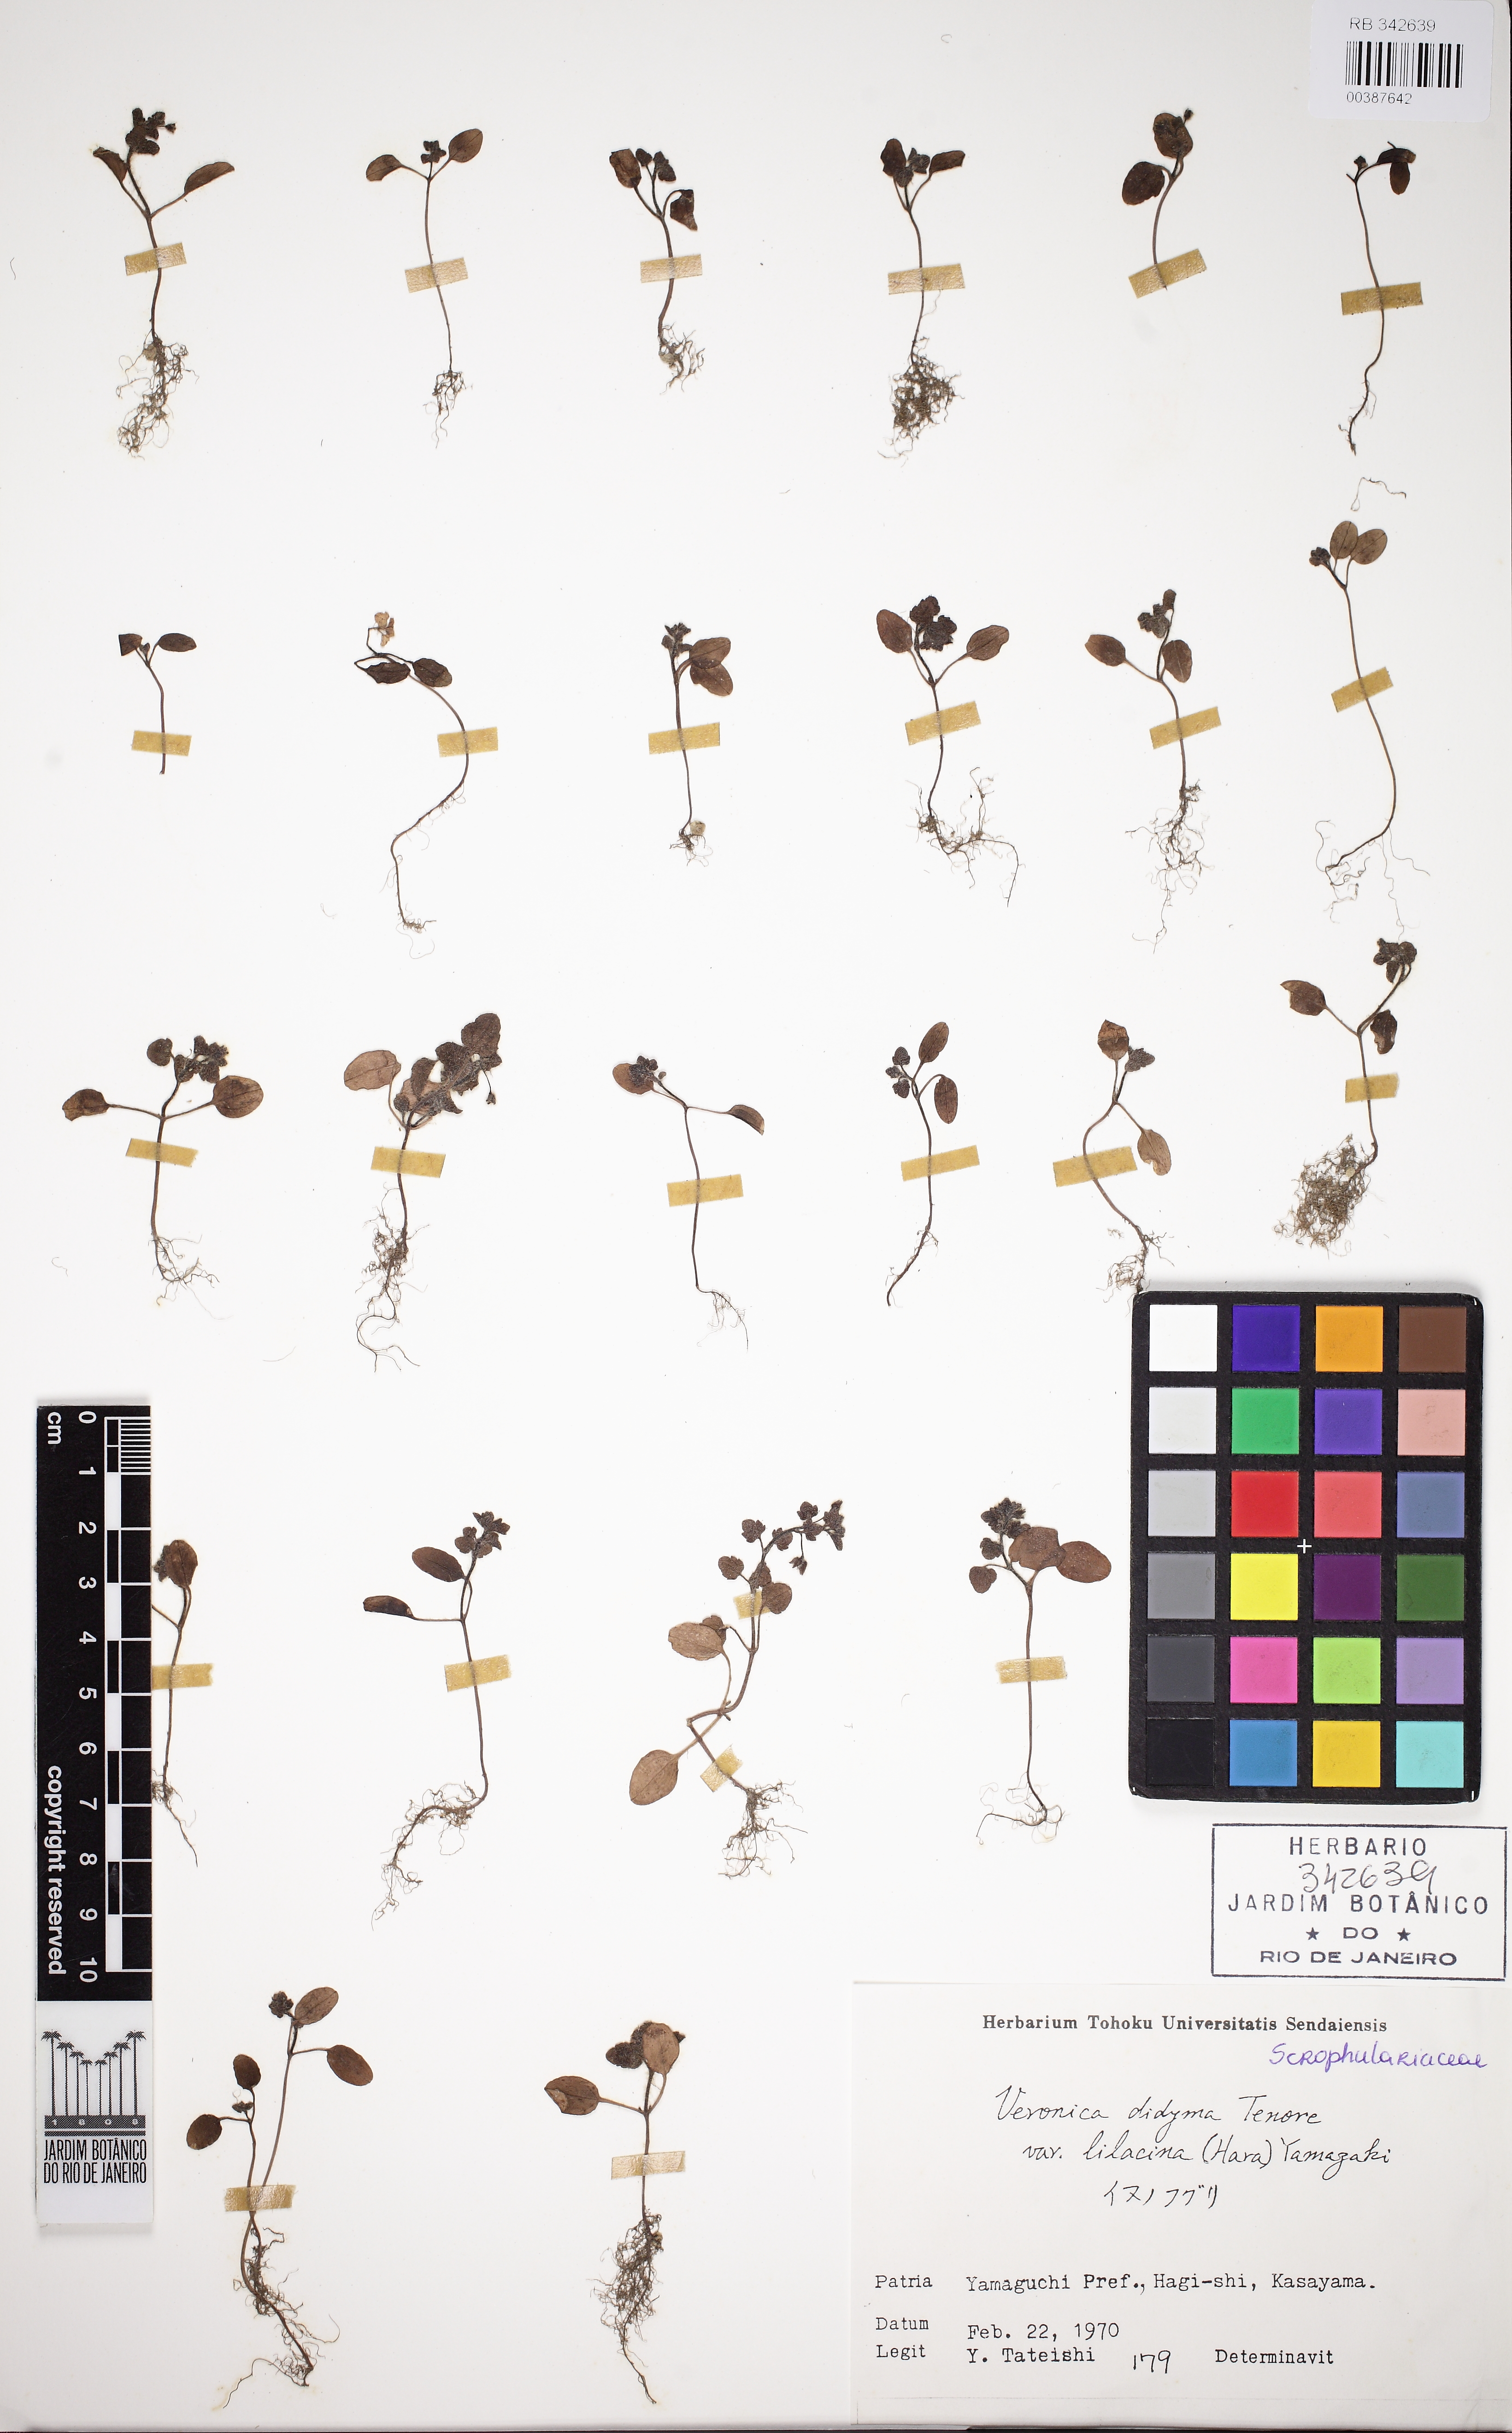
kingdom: Plantae
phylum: Tracheophyta
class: Magnoliopsida
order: Lamiales
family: Plantaginaceae
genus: Veronica
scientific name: Veronica polita
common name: Grey field-speedwell
